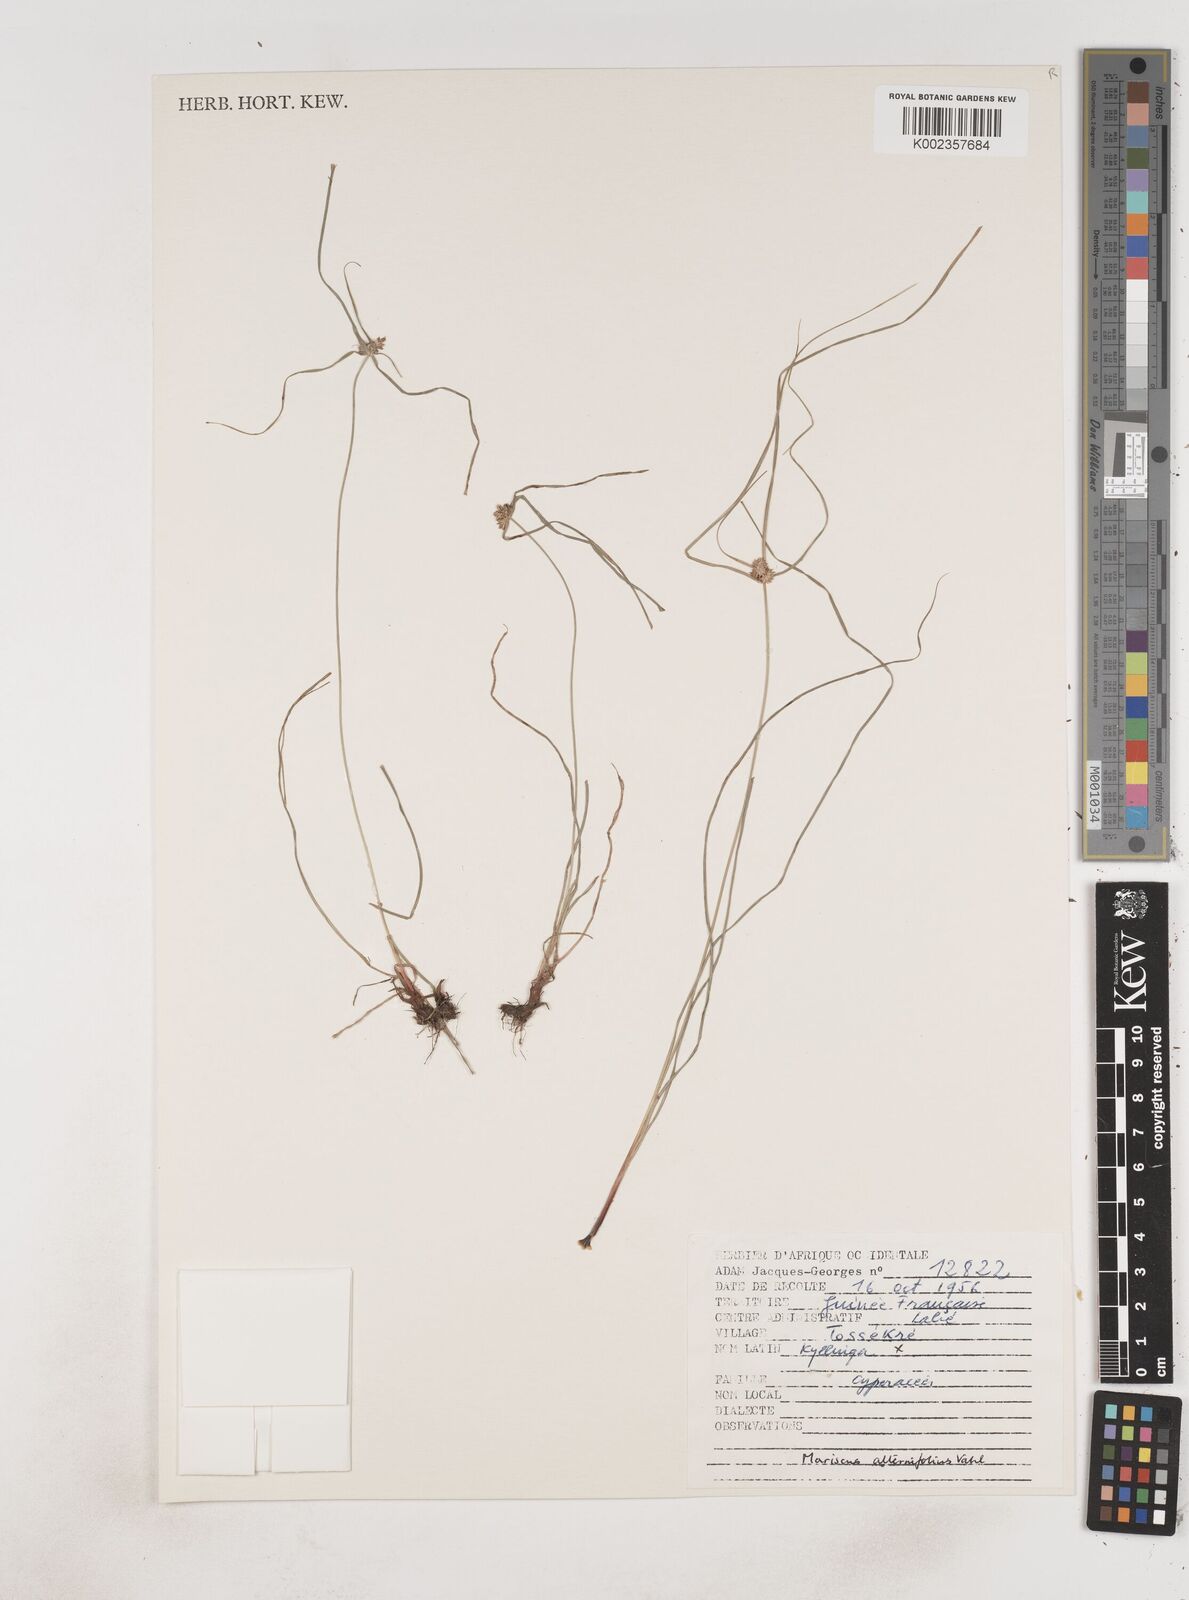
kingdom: Plantae
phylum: Tracheophyta
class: Liliopsida
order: Poales
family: Cyperaceae
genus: Cyperus
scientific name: Cyperus cyperoides
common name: Pacific island flat sedge
